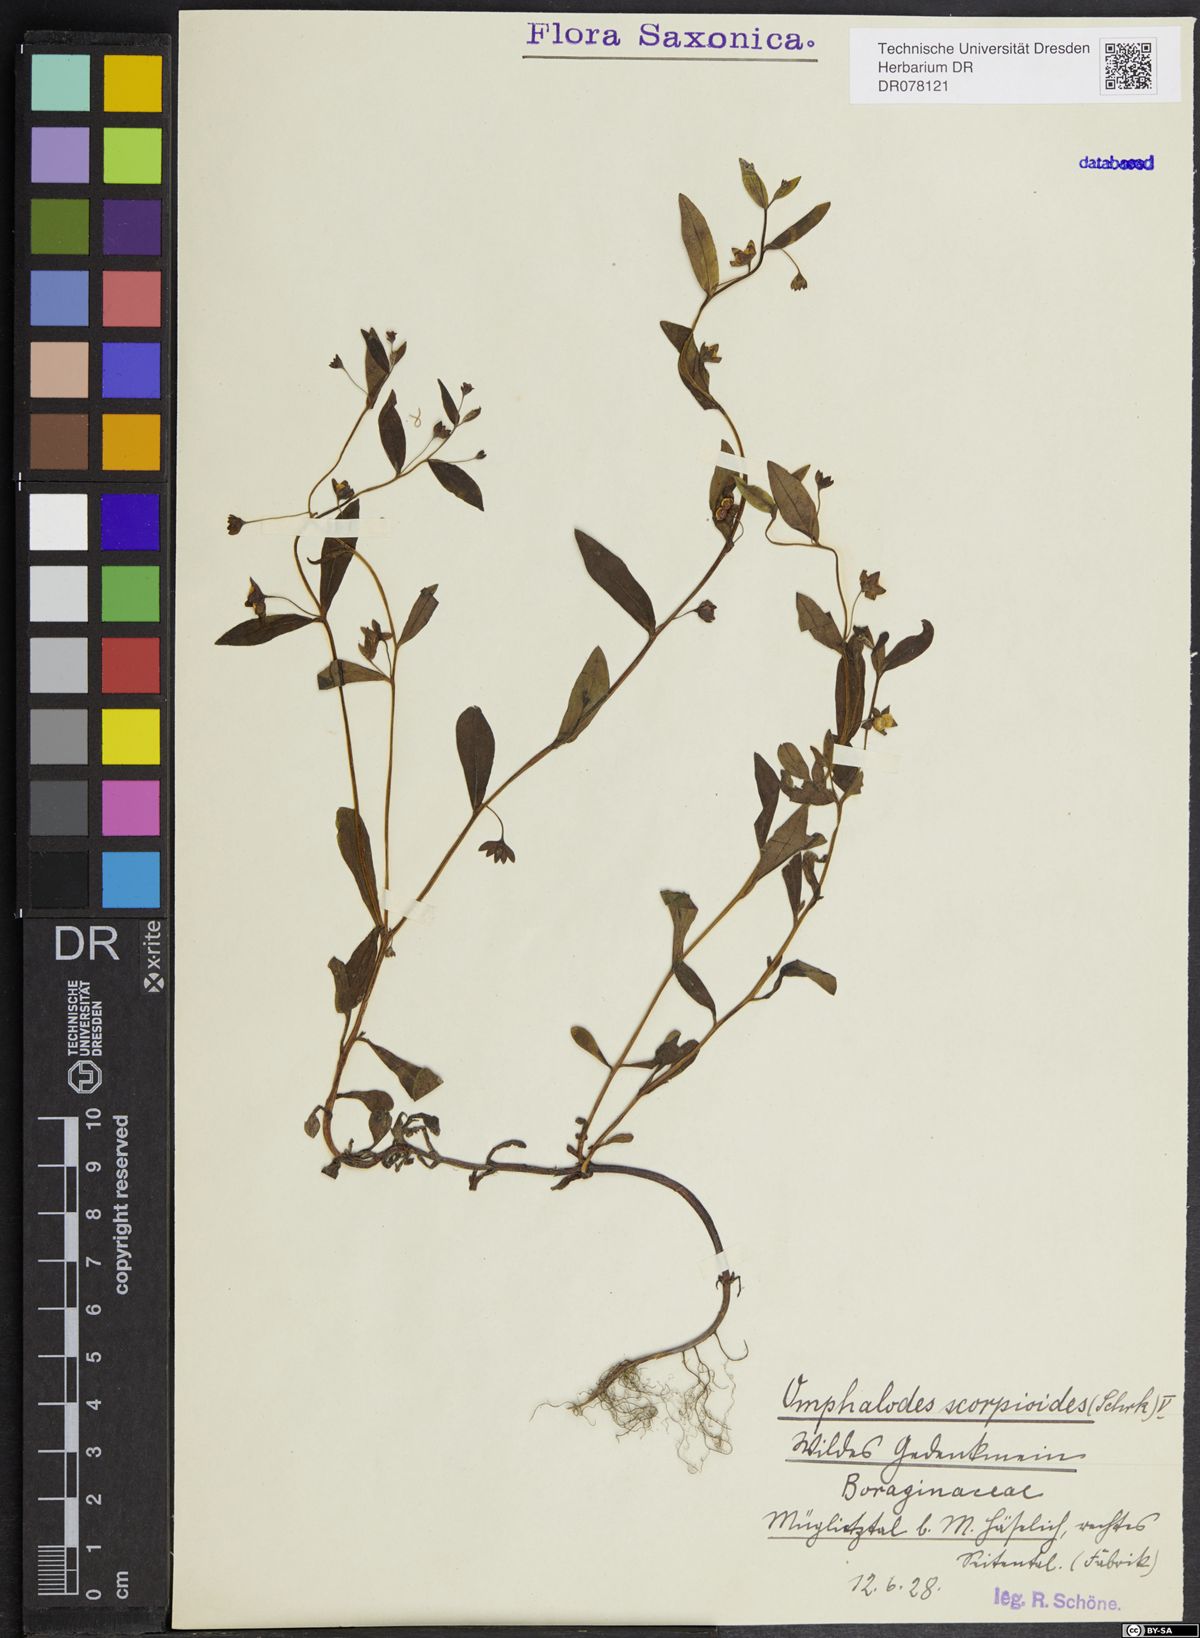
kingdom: Plantae
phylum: Tracheophyta
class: Magnoliopsida
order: Boraginales
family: Boraginaceae
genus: Memoremea
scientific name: Memoremea scorpioides
